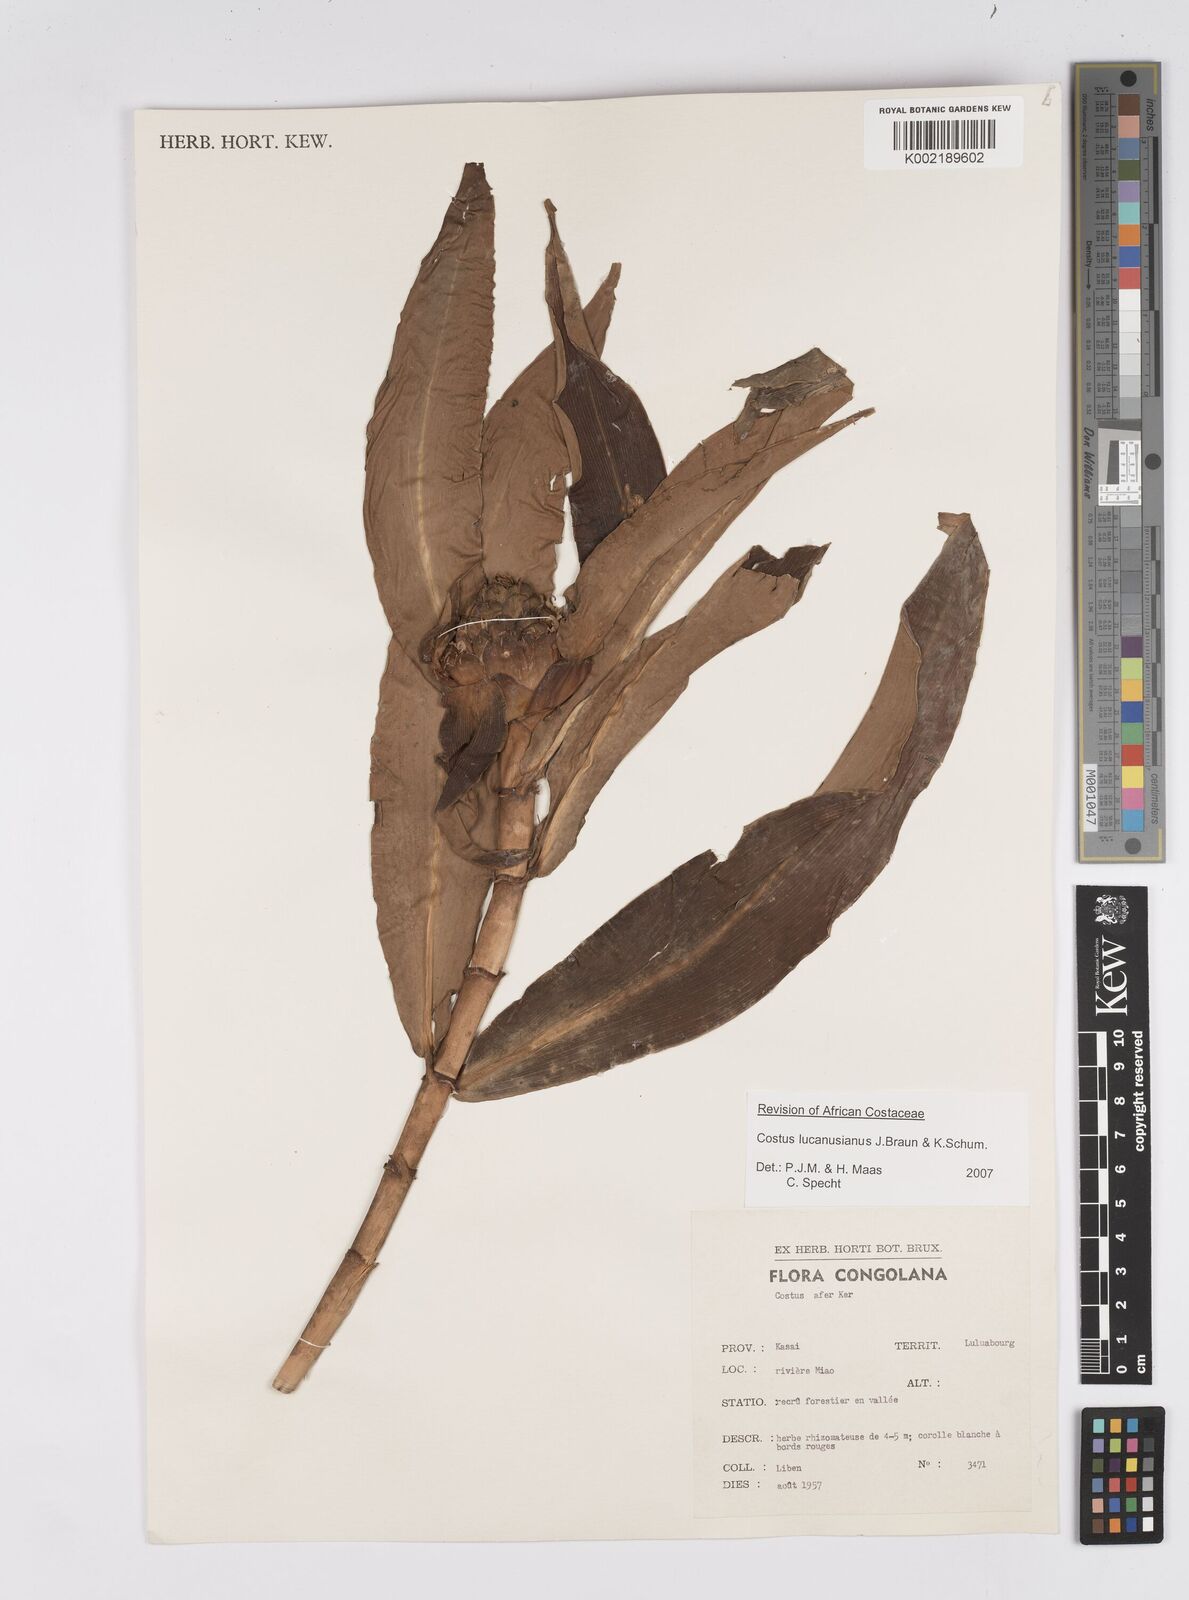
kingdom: Plantae
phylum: Tracheophyta
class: Liliopsida
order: Zingiberales
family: Costaceae
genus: Costus
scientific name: Costus lucanusianus
